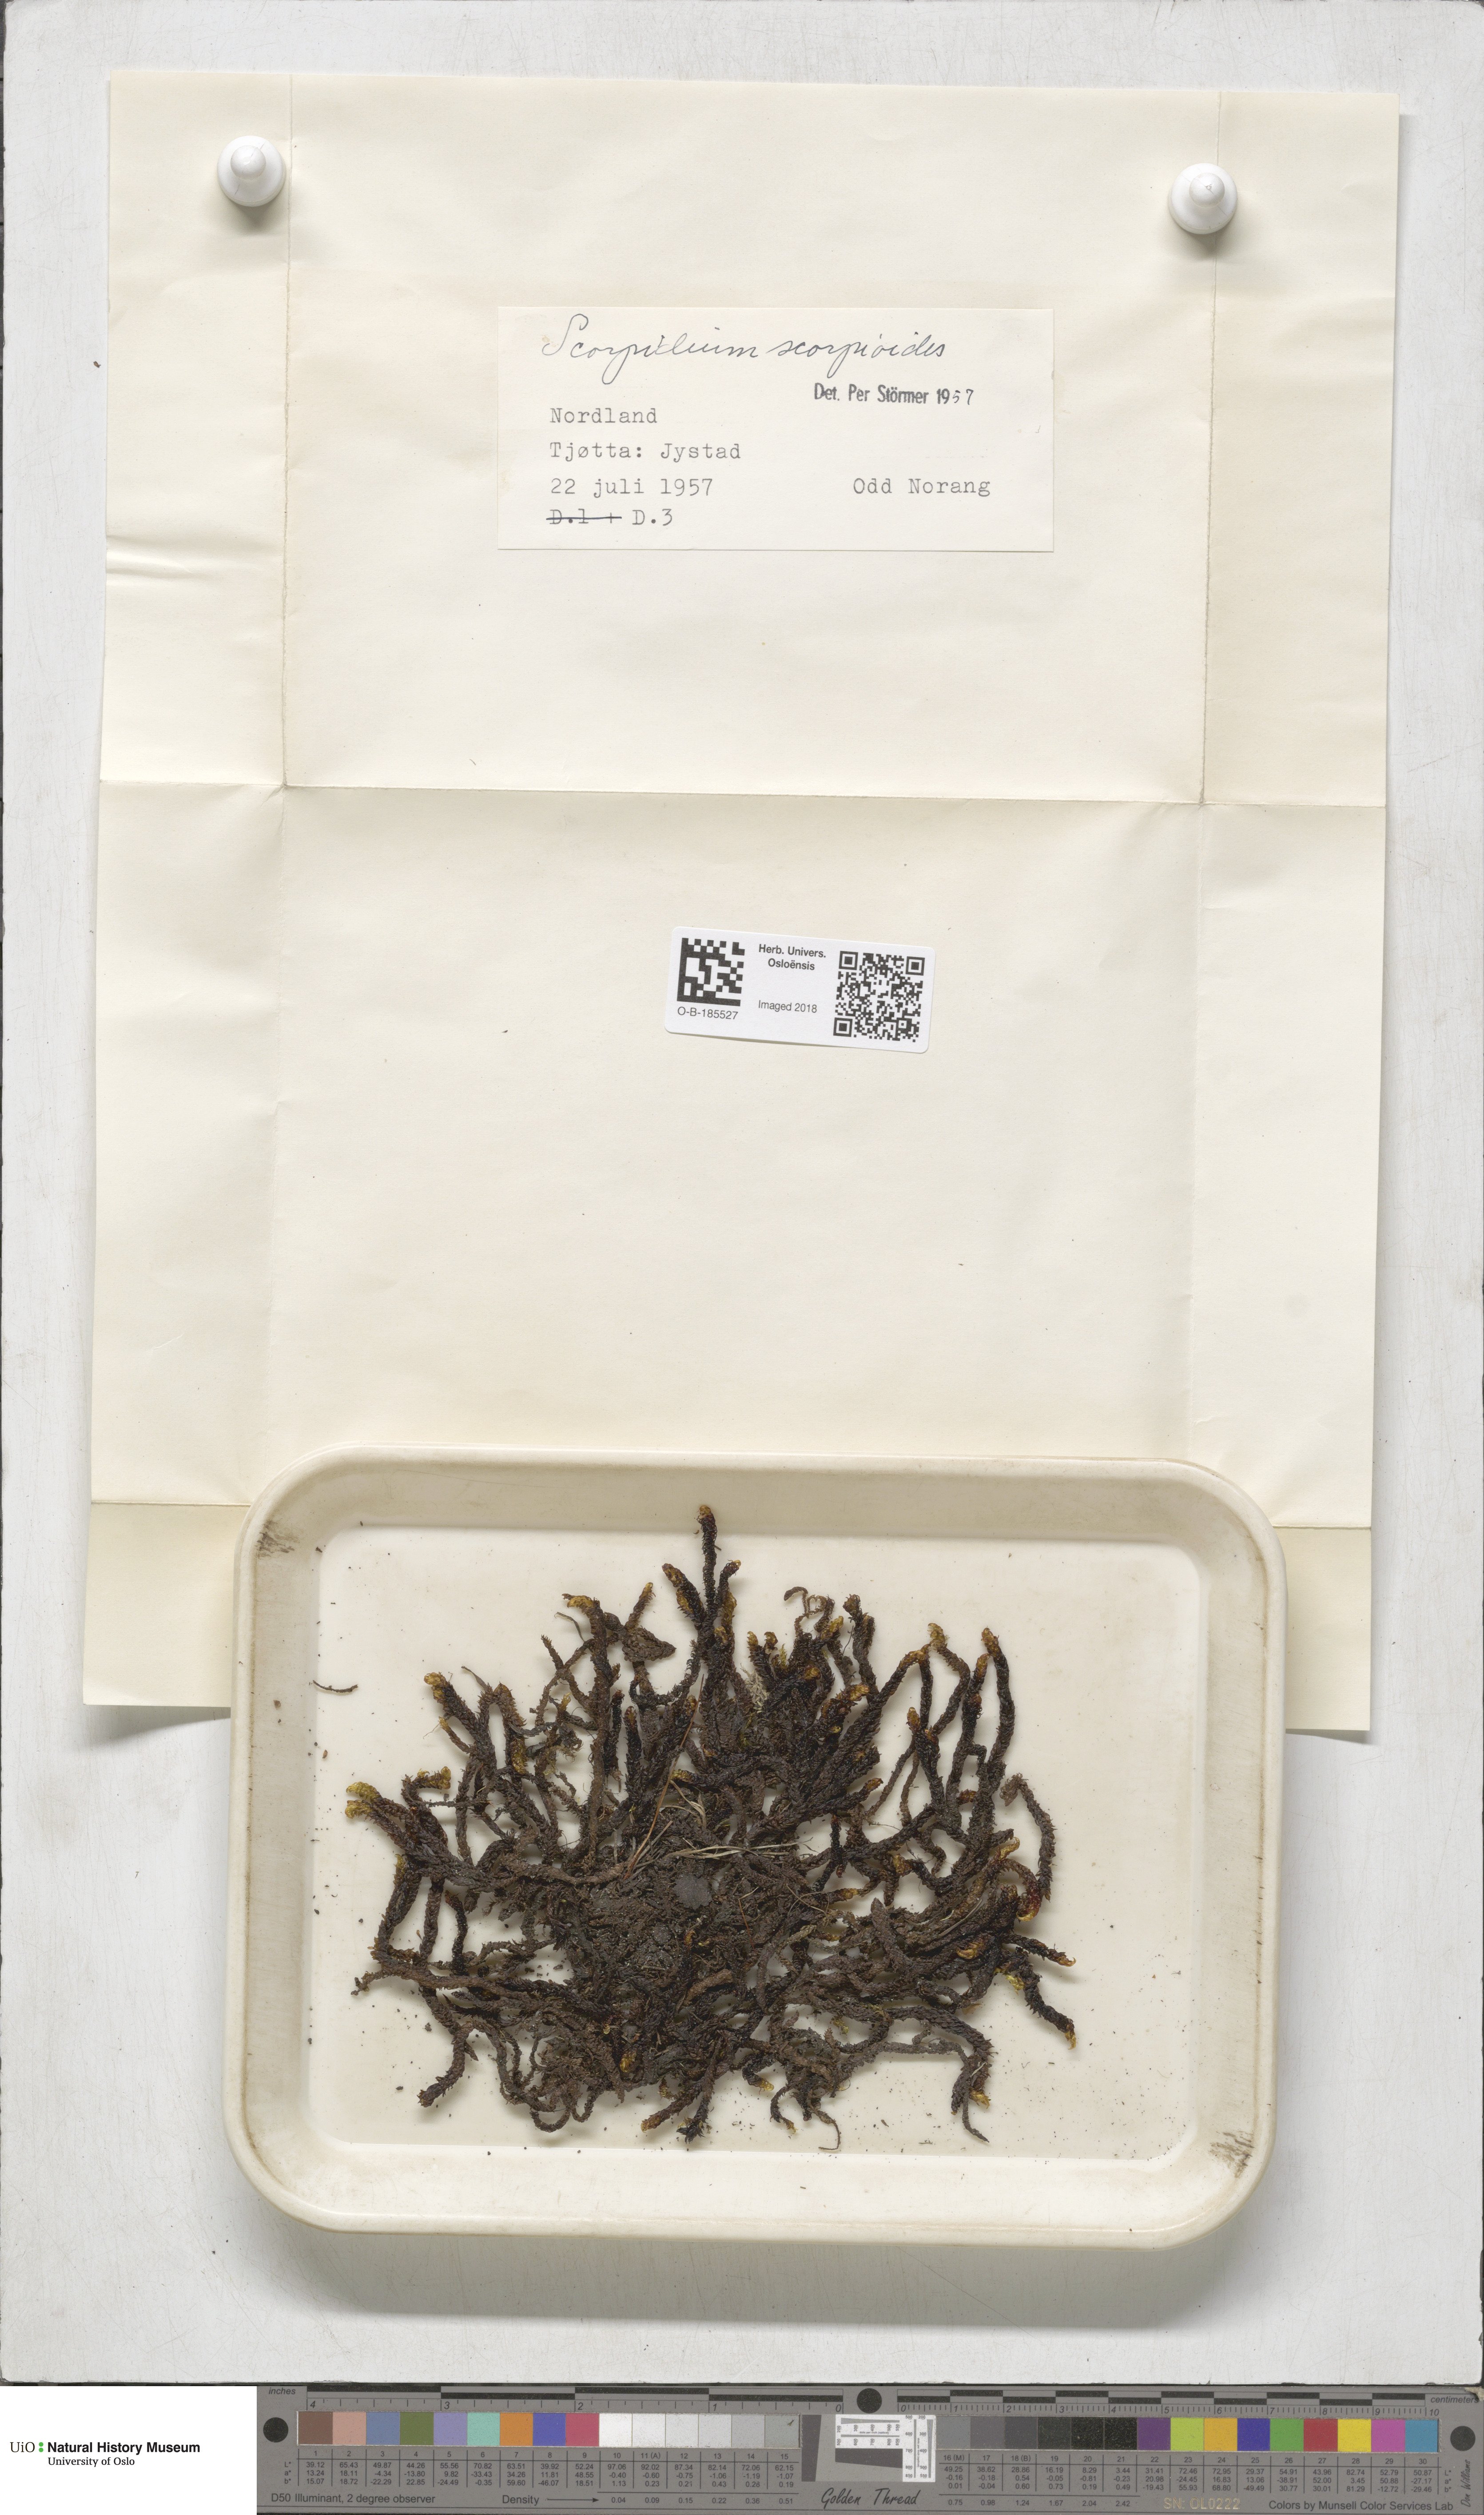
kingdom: Plantae
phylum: Bryophyta
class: Bryopsida
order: Hypnales
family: Scorpidiaceae
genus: Scorpidium
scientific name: Scorpidium scorpioides
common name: Hooked scorpion moss
